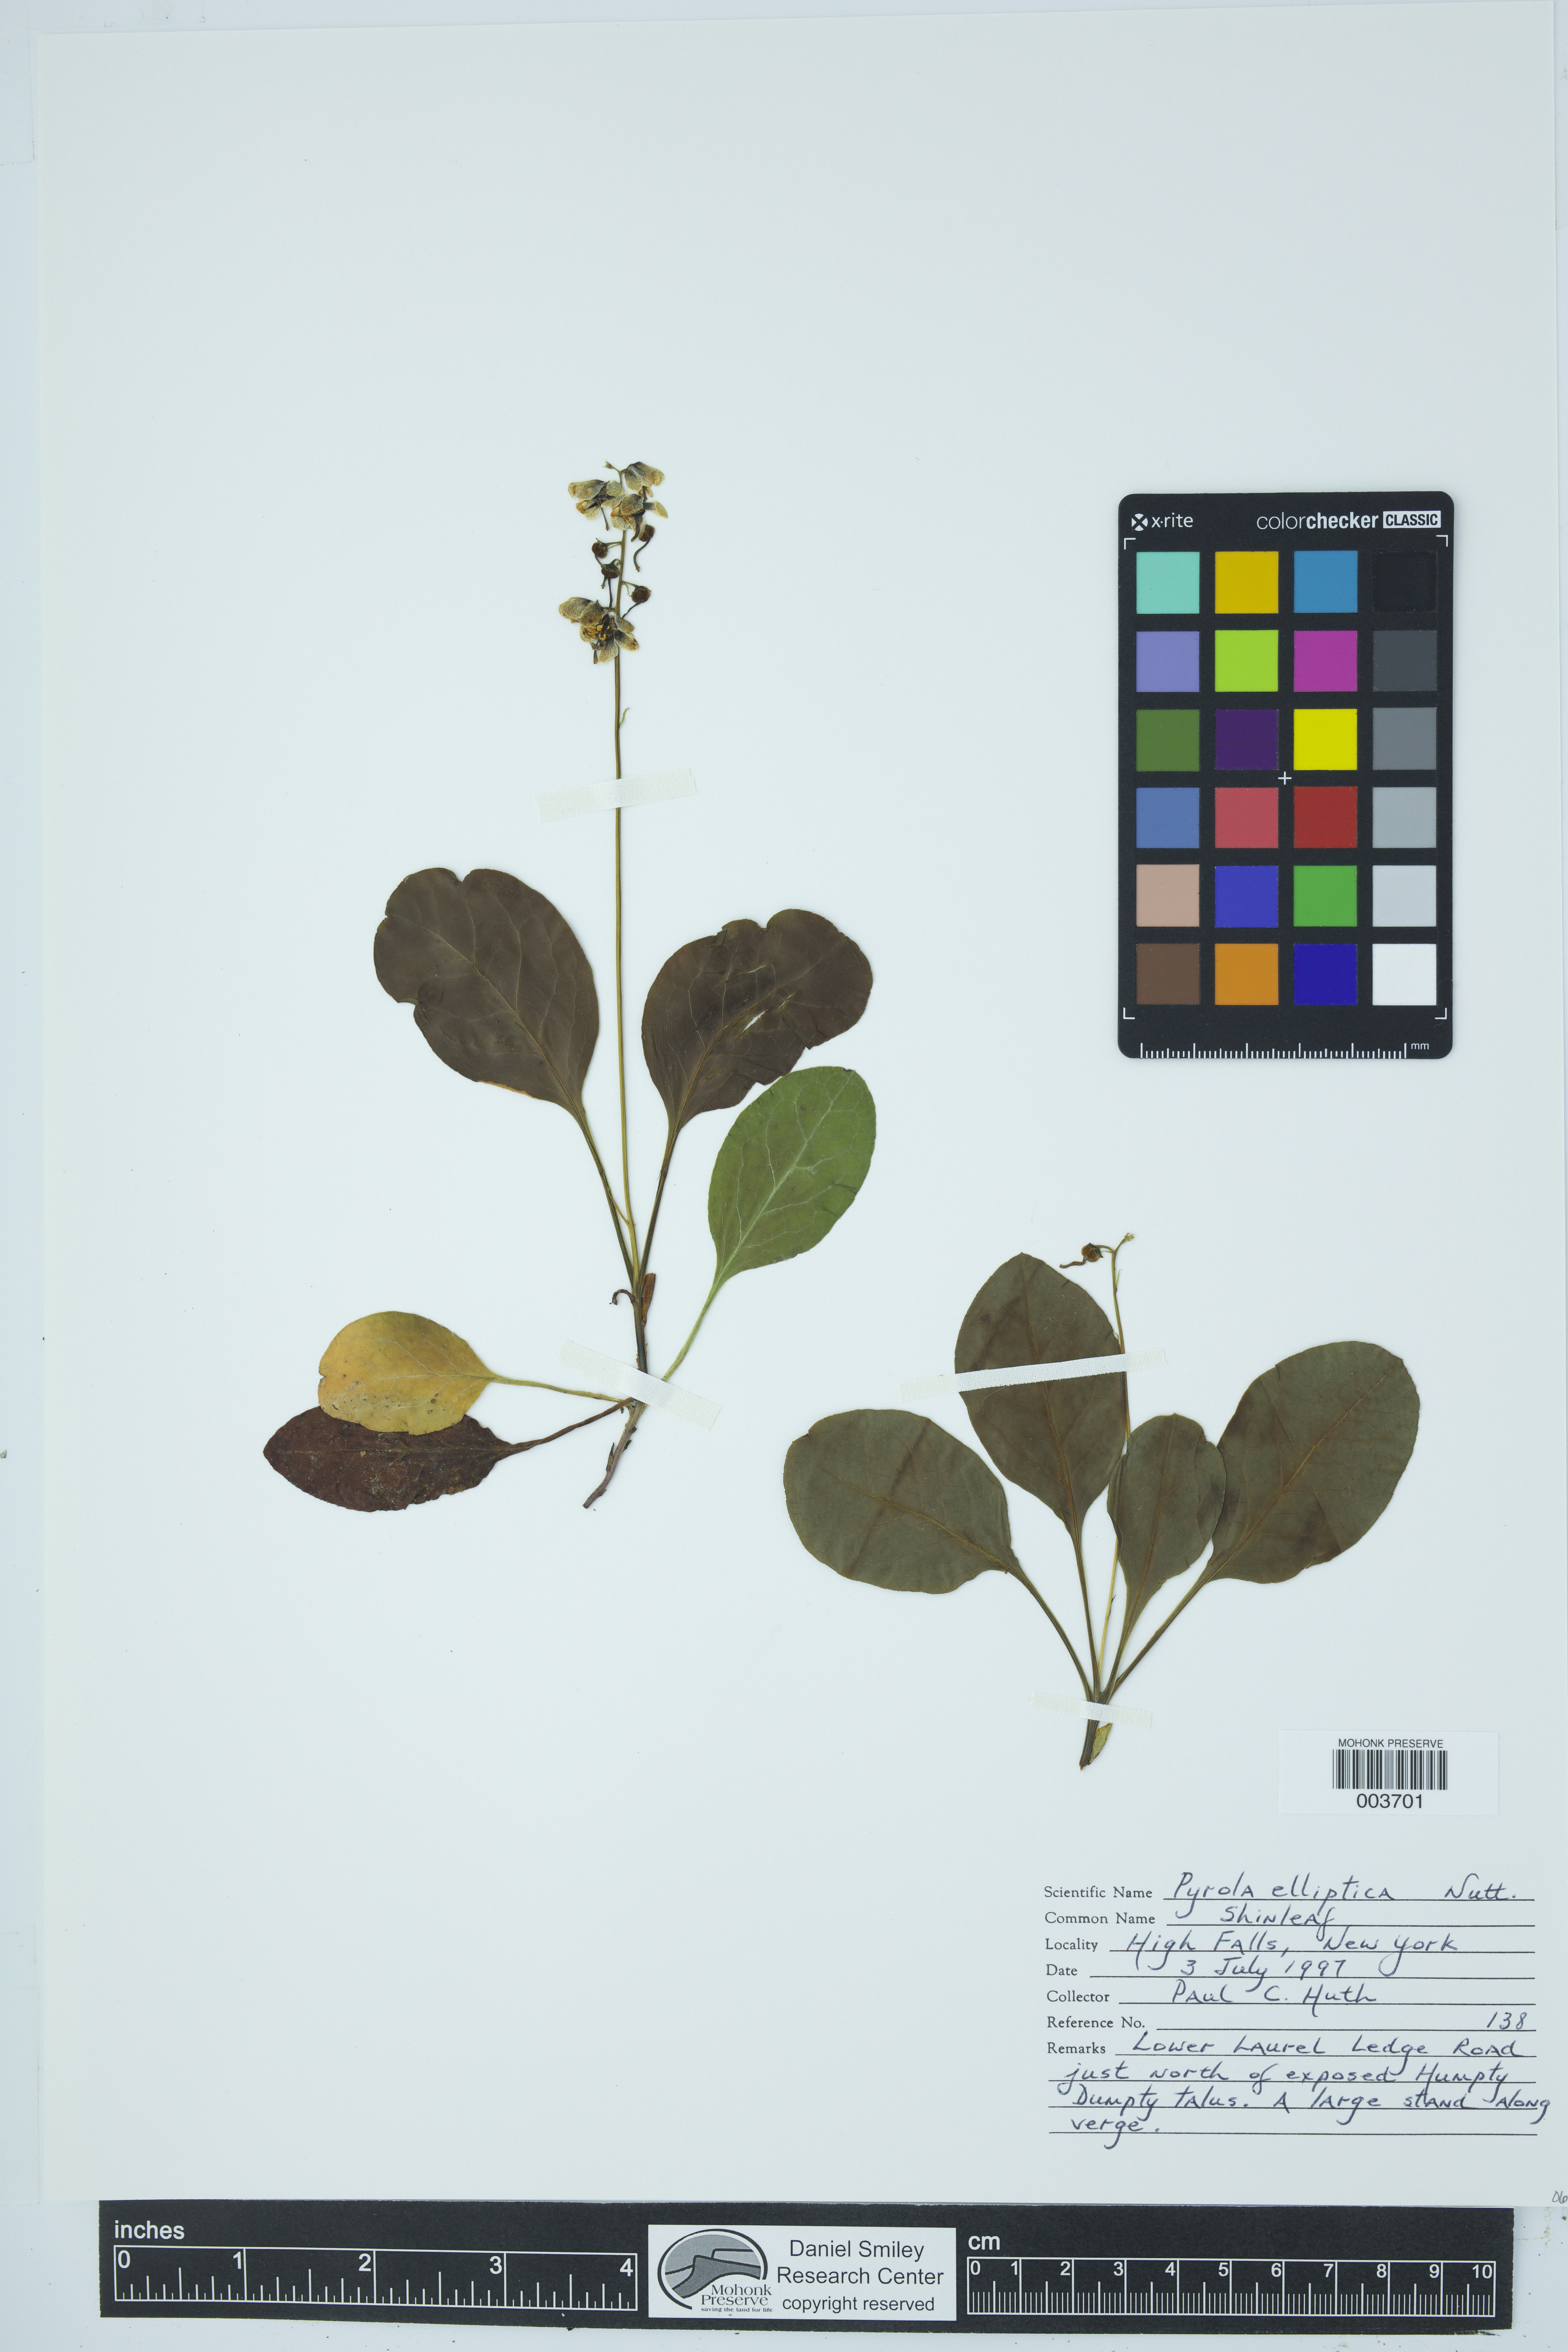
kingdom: Plantae
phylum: Tracheophyta
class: Magnoliopsida
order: Ericales
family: Ericaceae
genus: Pyrola
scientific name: Pyrola elliptica
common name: Shinleaf
